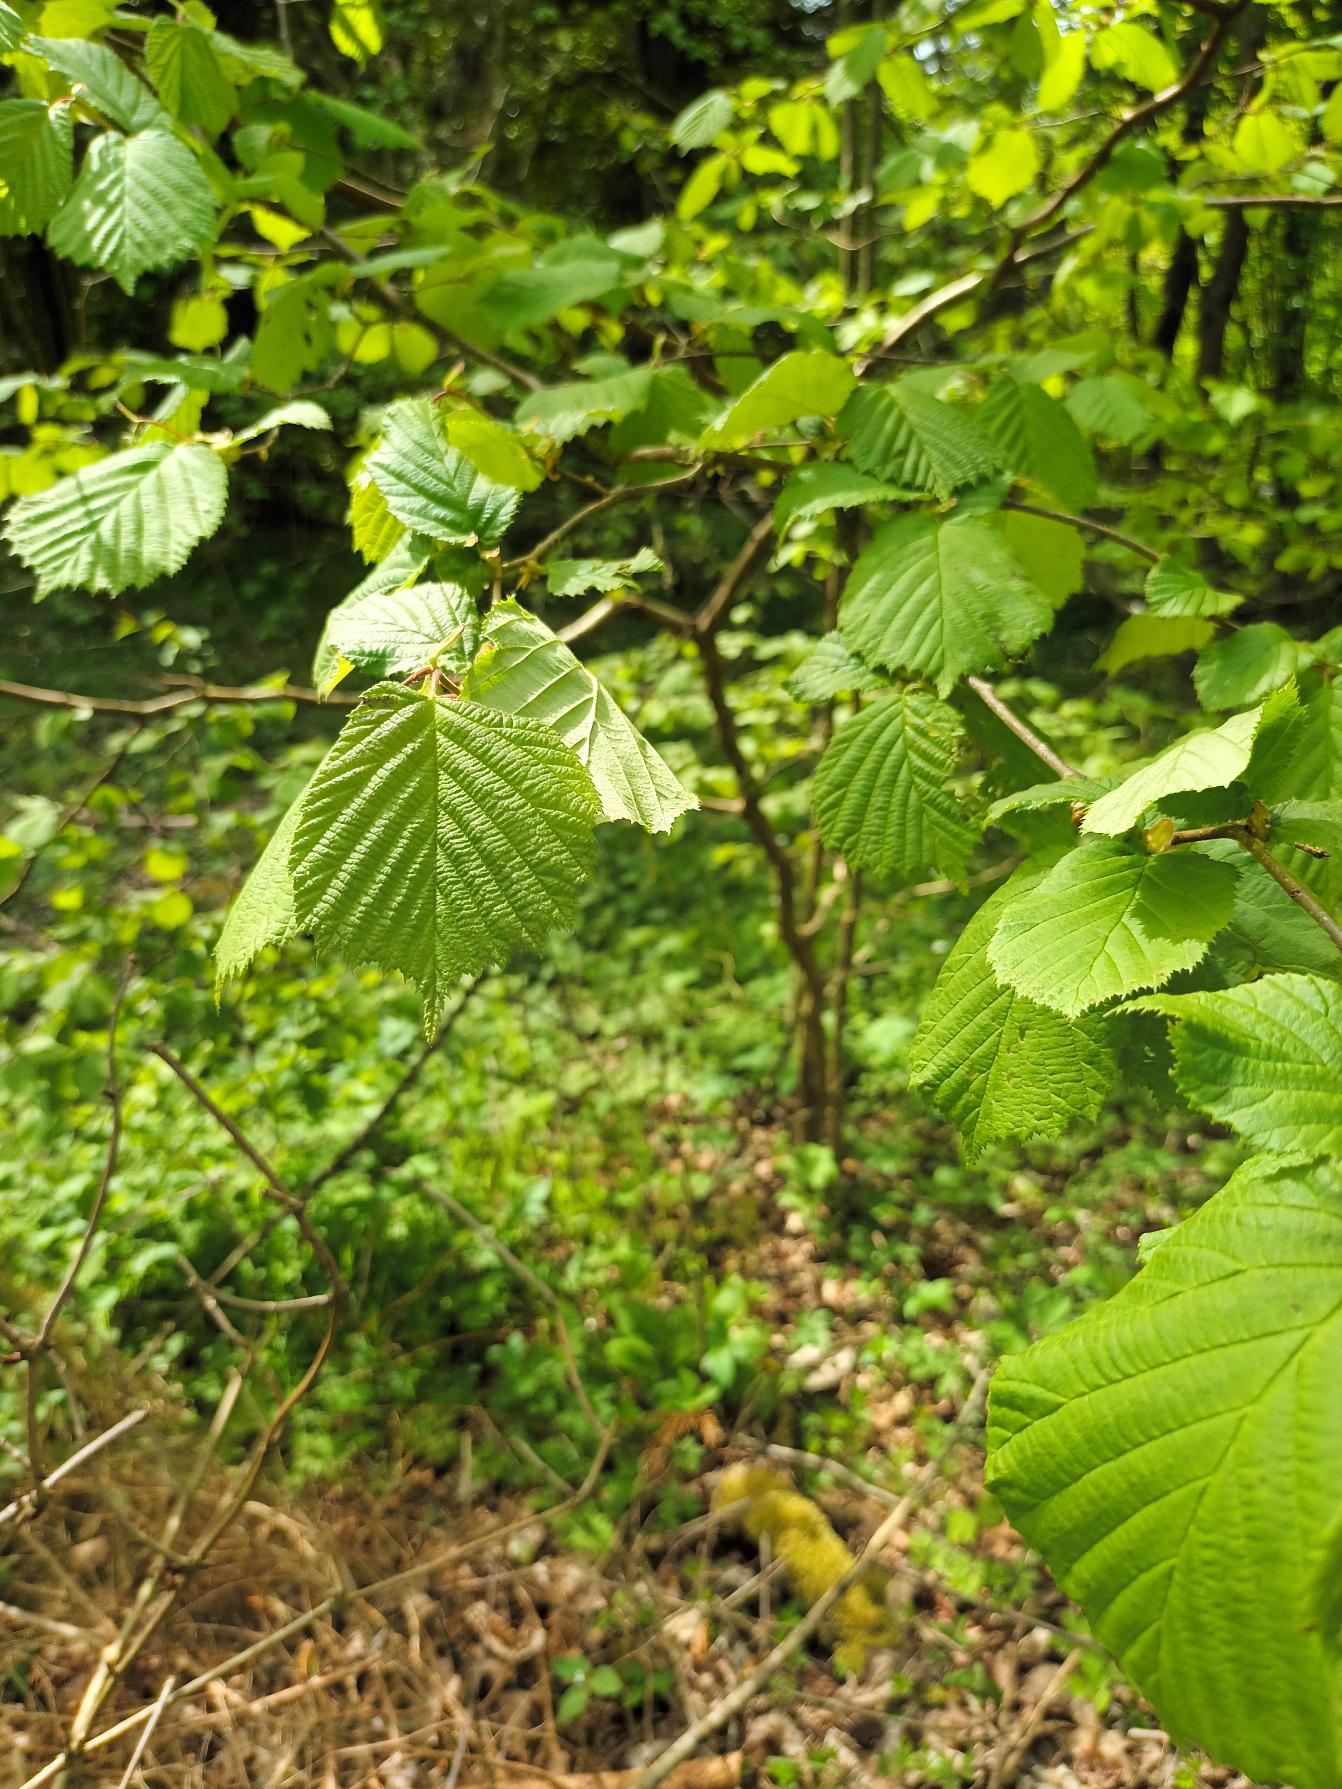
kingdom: Plantae
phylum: Tracheophyta
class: Magnoliopsida
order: Fagales
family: Betulaceae
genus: Corylus
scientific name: Corylus avellana
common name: Hassel
